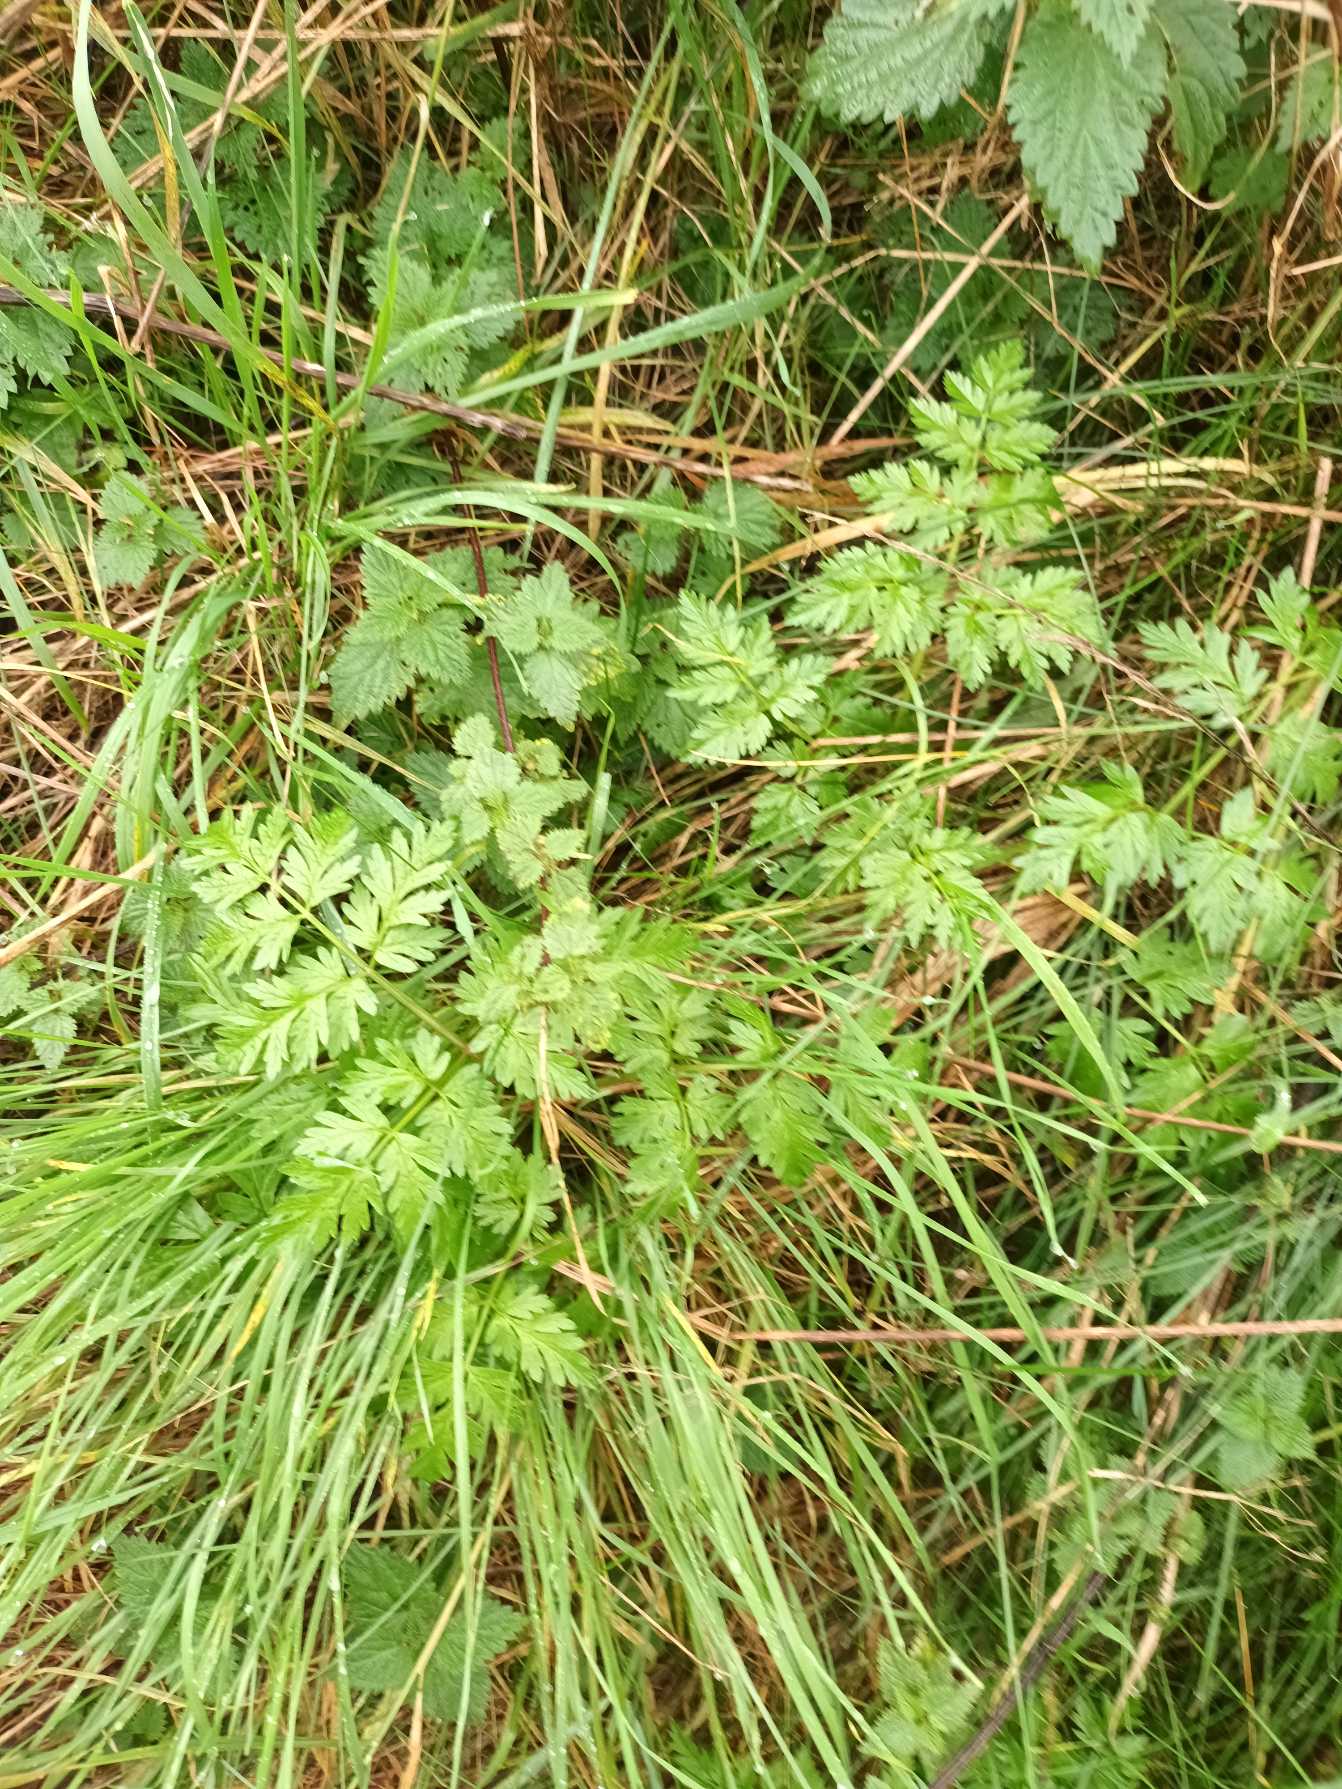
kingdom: Plantae
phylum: Tracheophyta
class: Magnoliopsida
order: Apiales
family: Apiaceae
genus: Anthriscus
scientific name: Anthriscus sylvestris
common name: Vild kørvel
